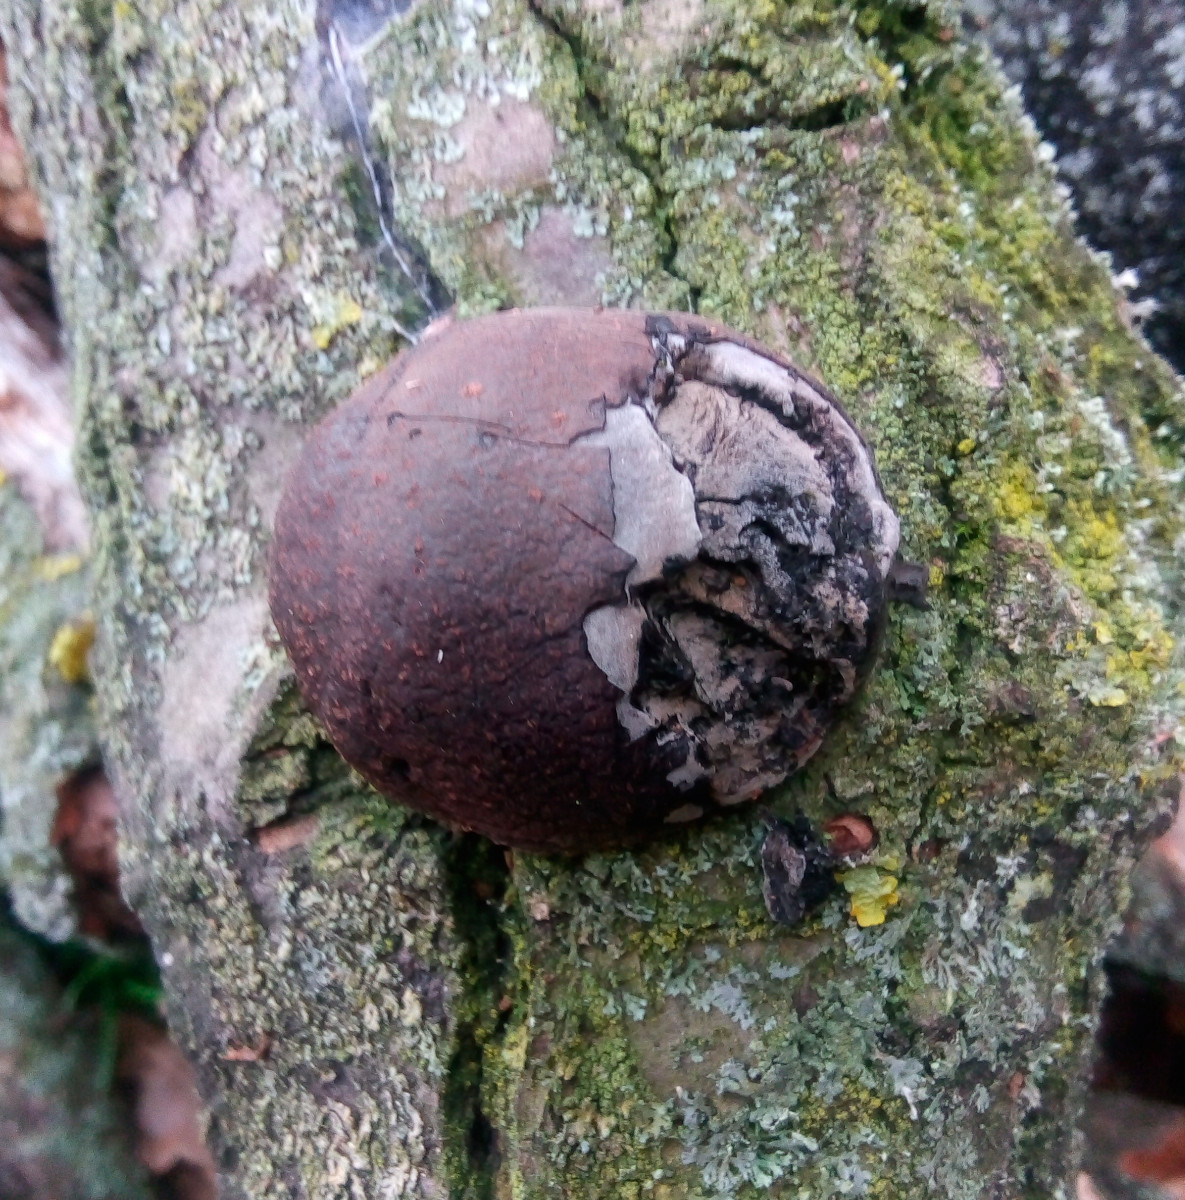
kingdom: Fungi
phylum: Ascomycota
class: Sordariomycetes
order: Xylariales
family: Hypoxylaceae
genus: Daldinia
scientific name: Daldinia
